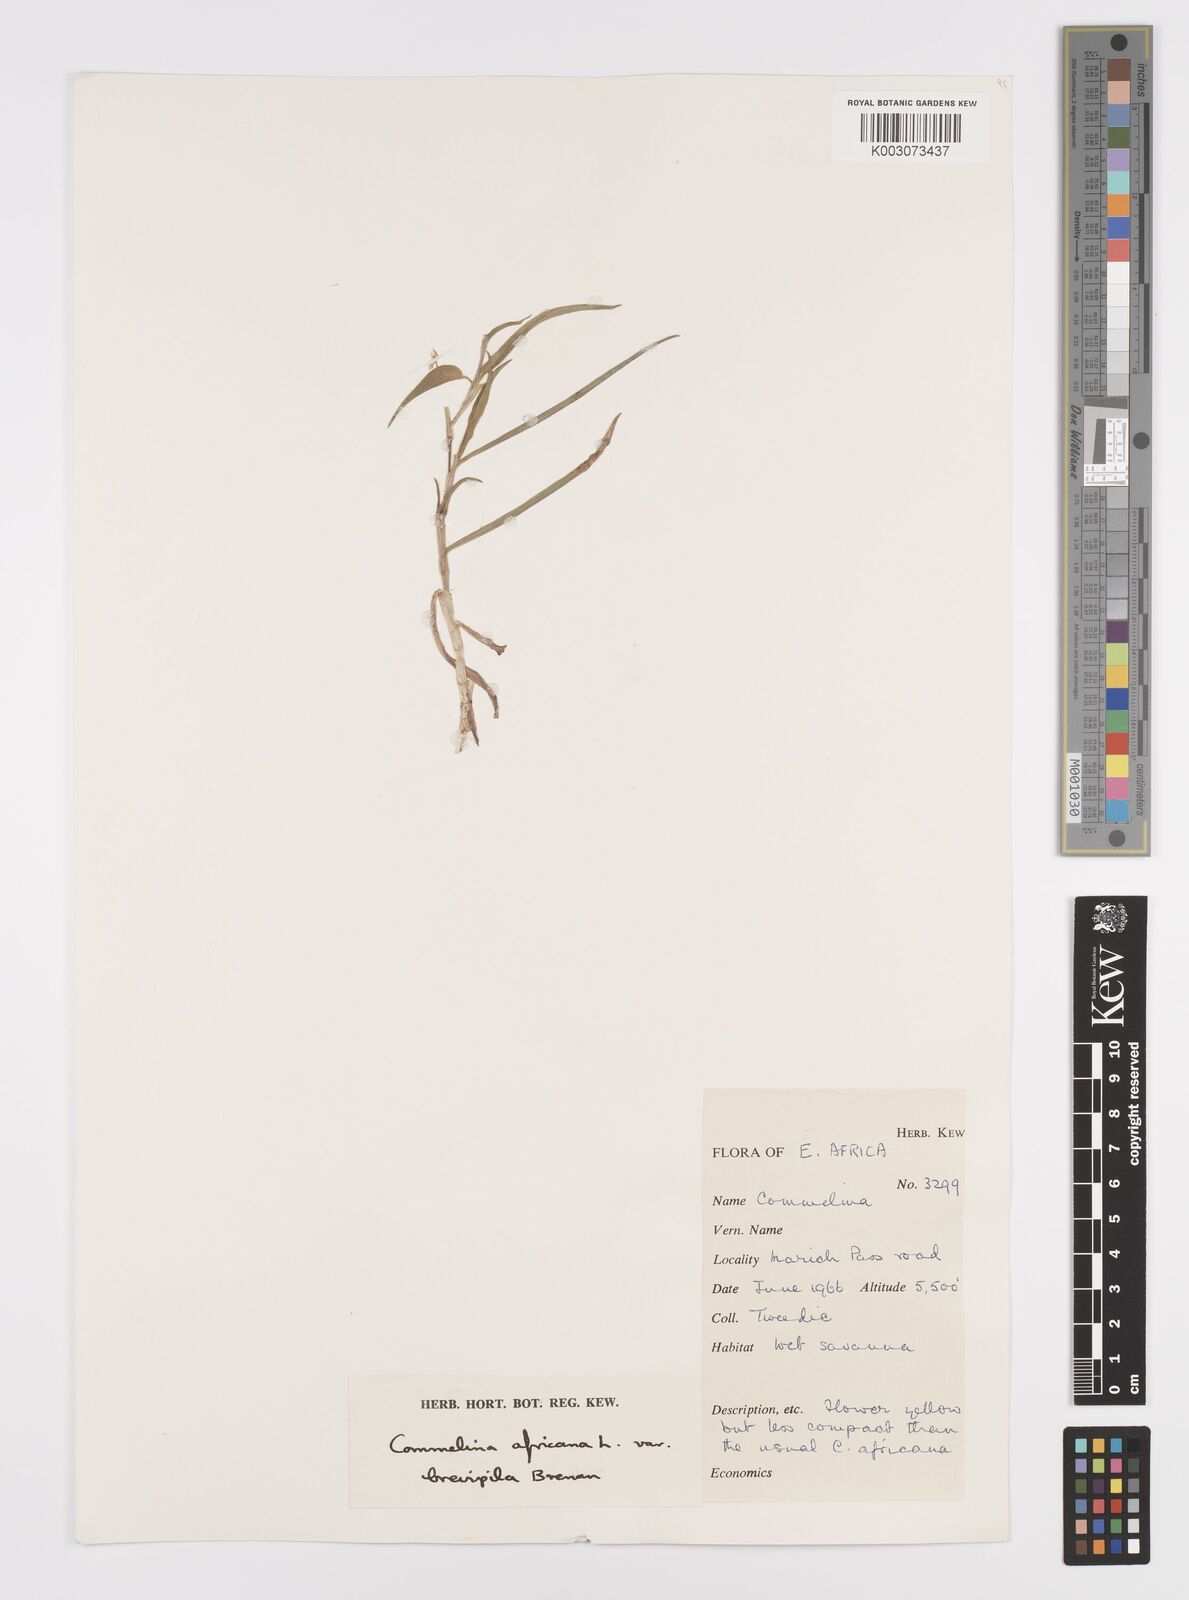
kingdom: Plantae
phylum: Tracheophyta
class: Liliopsida
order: Commelinales
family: Commelinaceae
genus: Commelina
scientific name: Commelina africana
